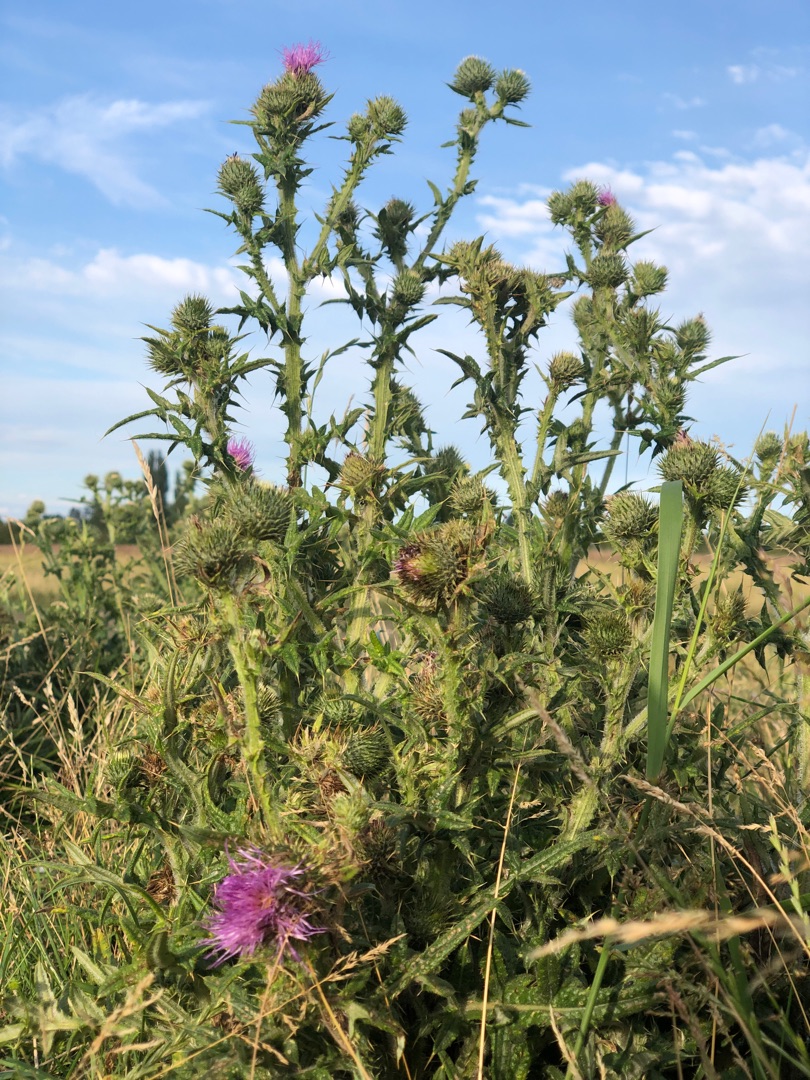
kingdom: Plantae
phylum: Tracheophyta
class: Magnoliopsida
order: Asterales
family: Asteraceae
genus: Cirsium
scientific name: Cirsium vulgare
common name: Horse-tidsel
